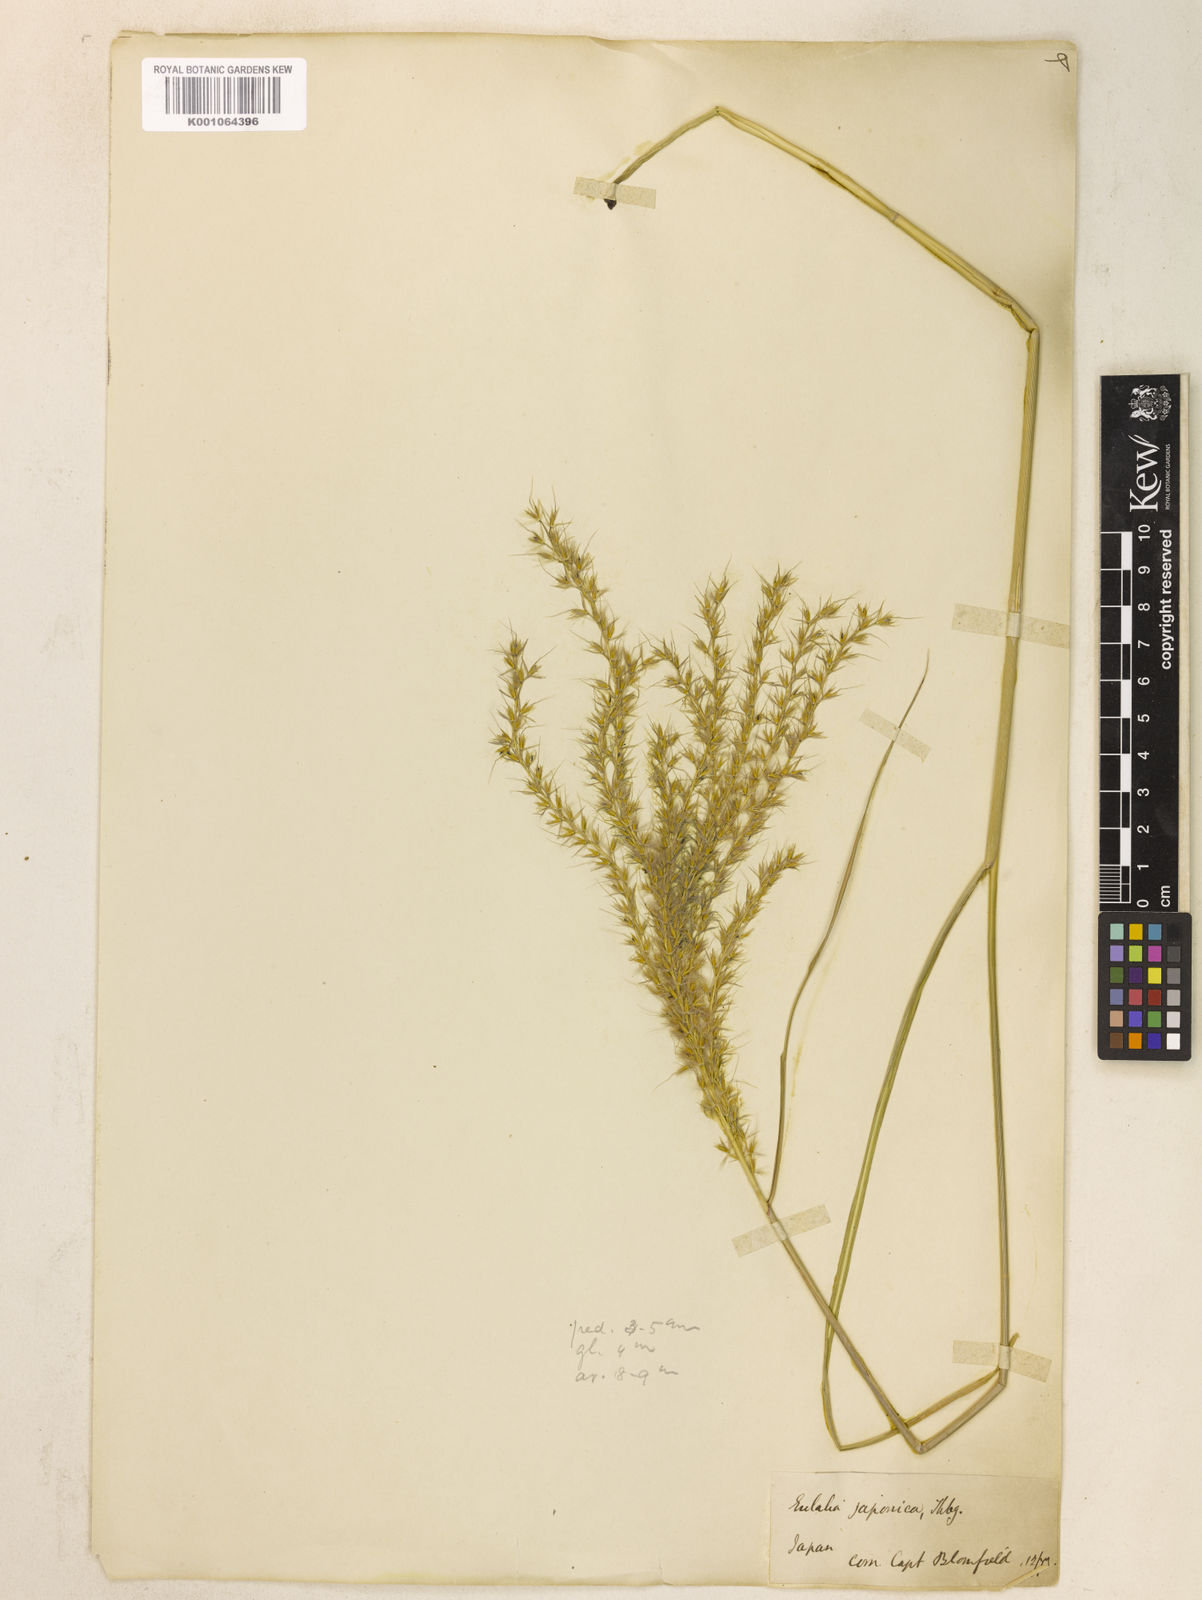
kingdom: Plantae
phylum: Tracheophyta
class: Liliopsida
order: Poales
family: Poaceae
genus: Miscanthus
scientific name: Miscanthus sinensis
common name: Chinese silvergrass
